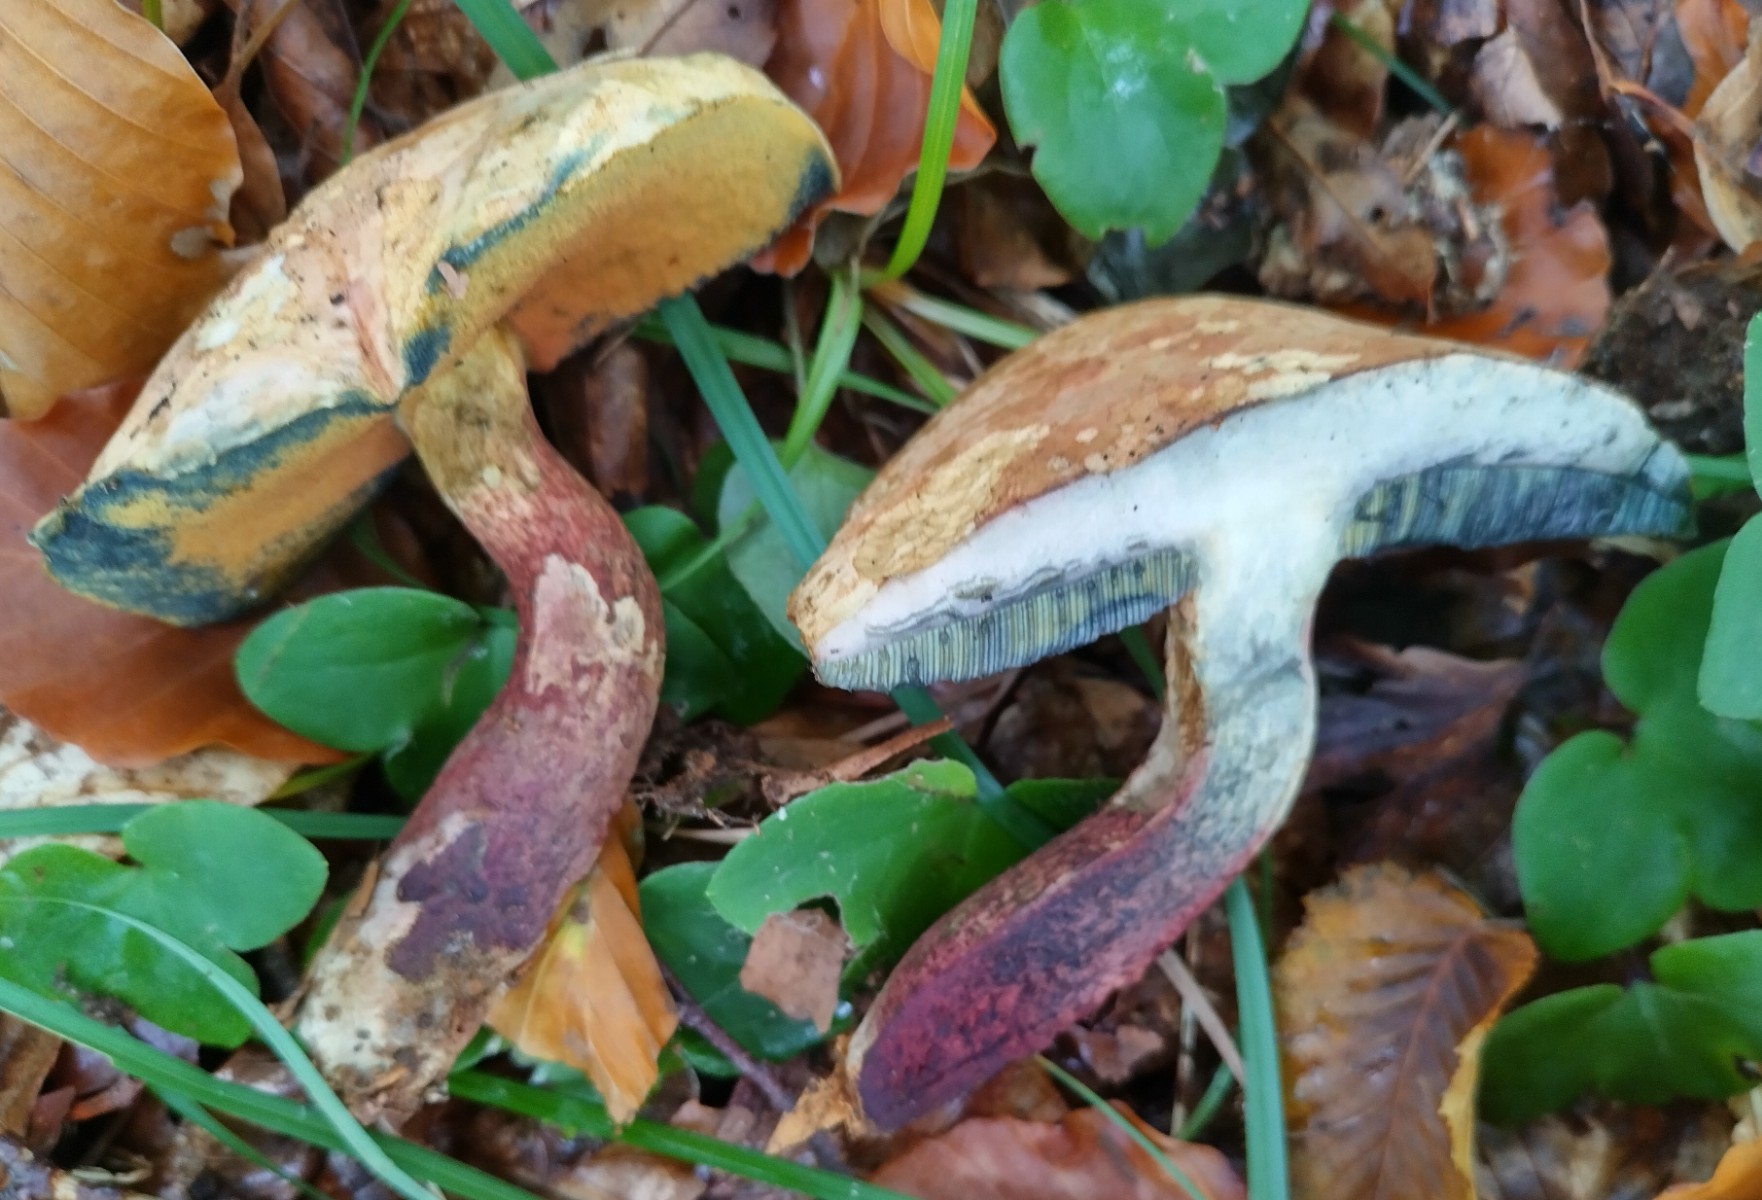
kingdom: Fungi
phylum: Basidiomycota
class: Agaricomycetes
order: Boletales
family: Boletaceae
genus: Suillellus
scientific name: Suillellus mendax
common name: joker-indigorørhat
